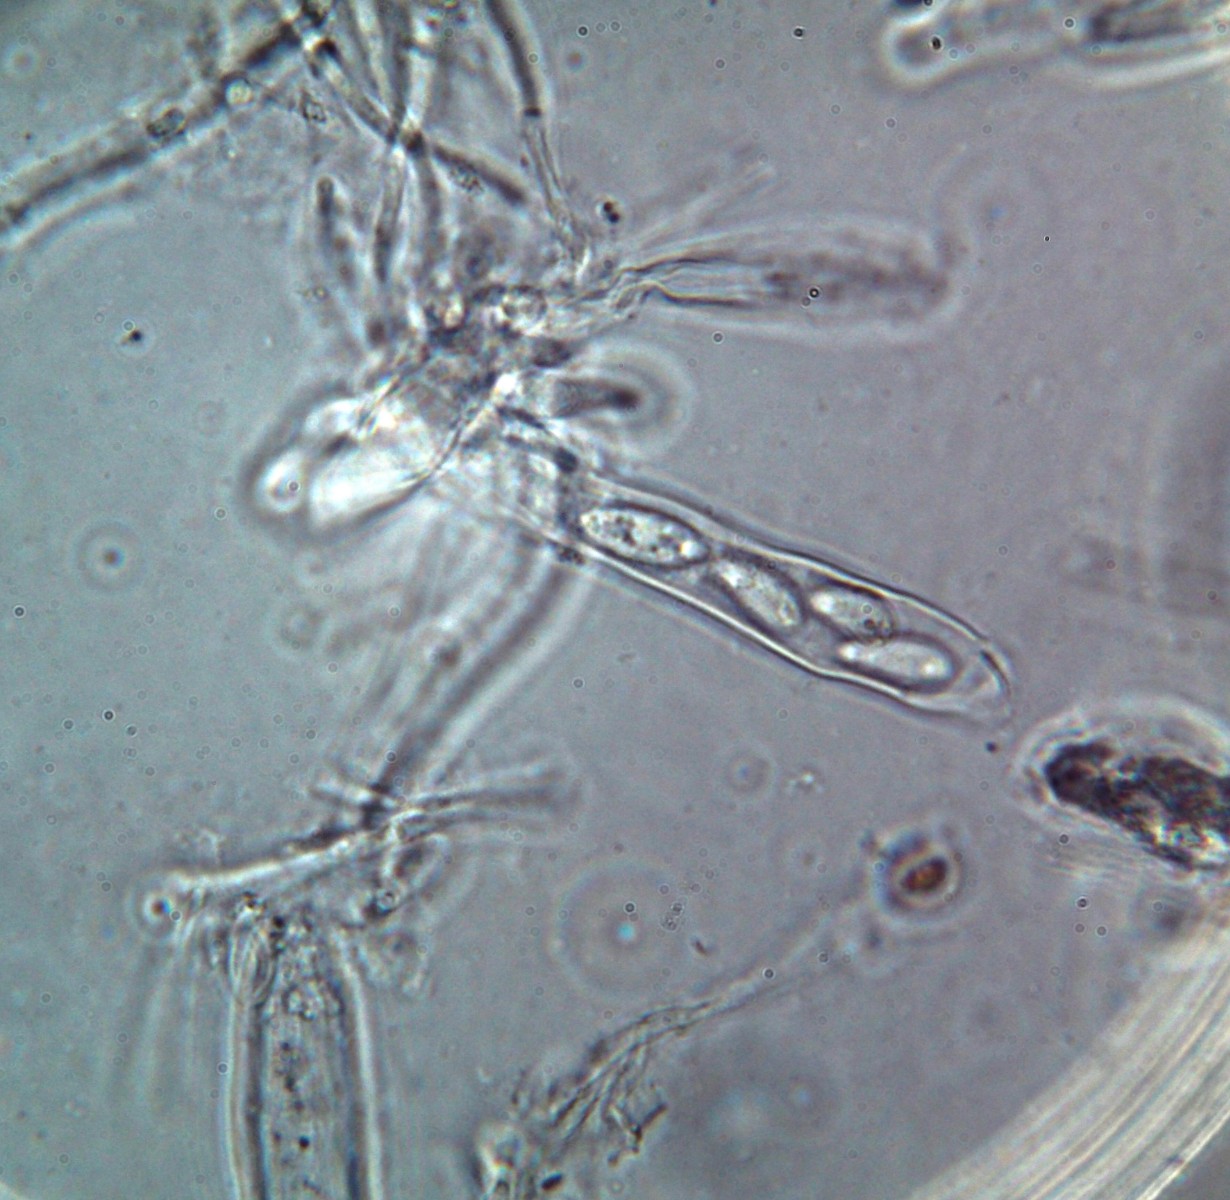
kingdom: Fungi
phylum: Ascomycota
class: Leotiomycetes
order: Helotiales
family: Drepanopezizaceae
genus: Pseudopeziza
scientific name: Pseudopeziza trifolii
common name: kløver-bladskive
